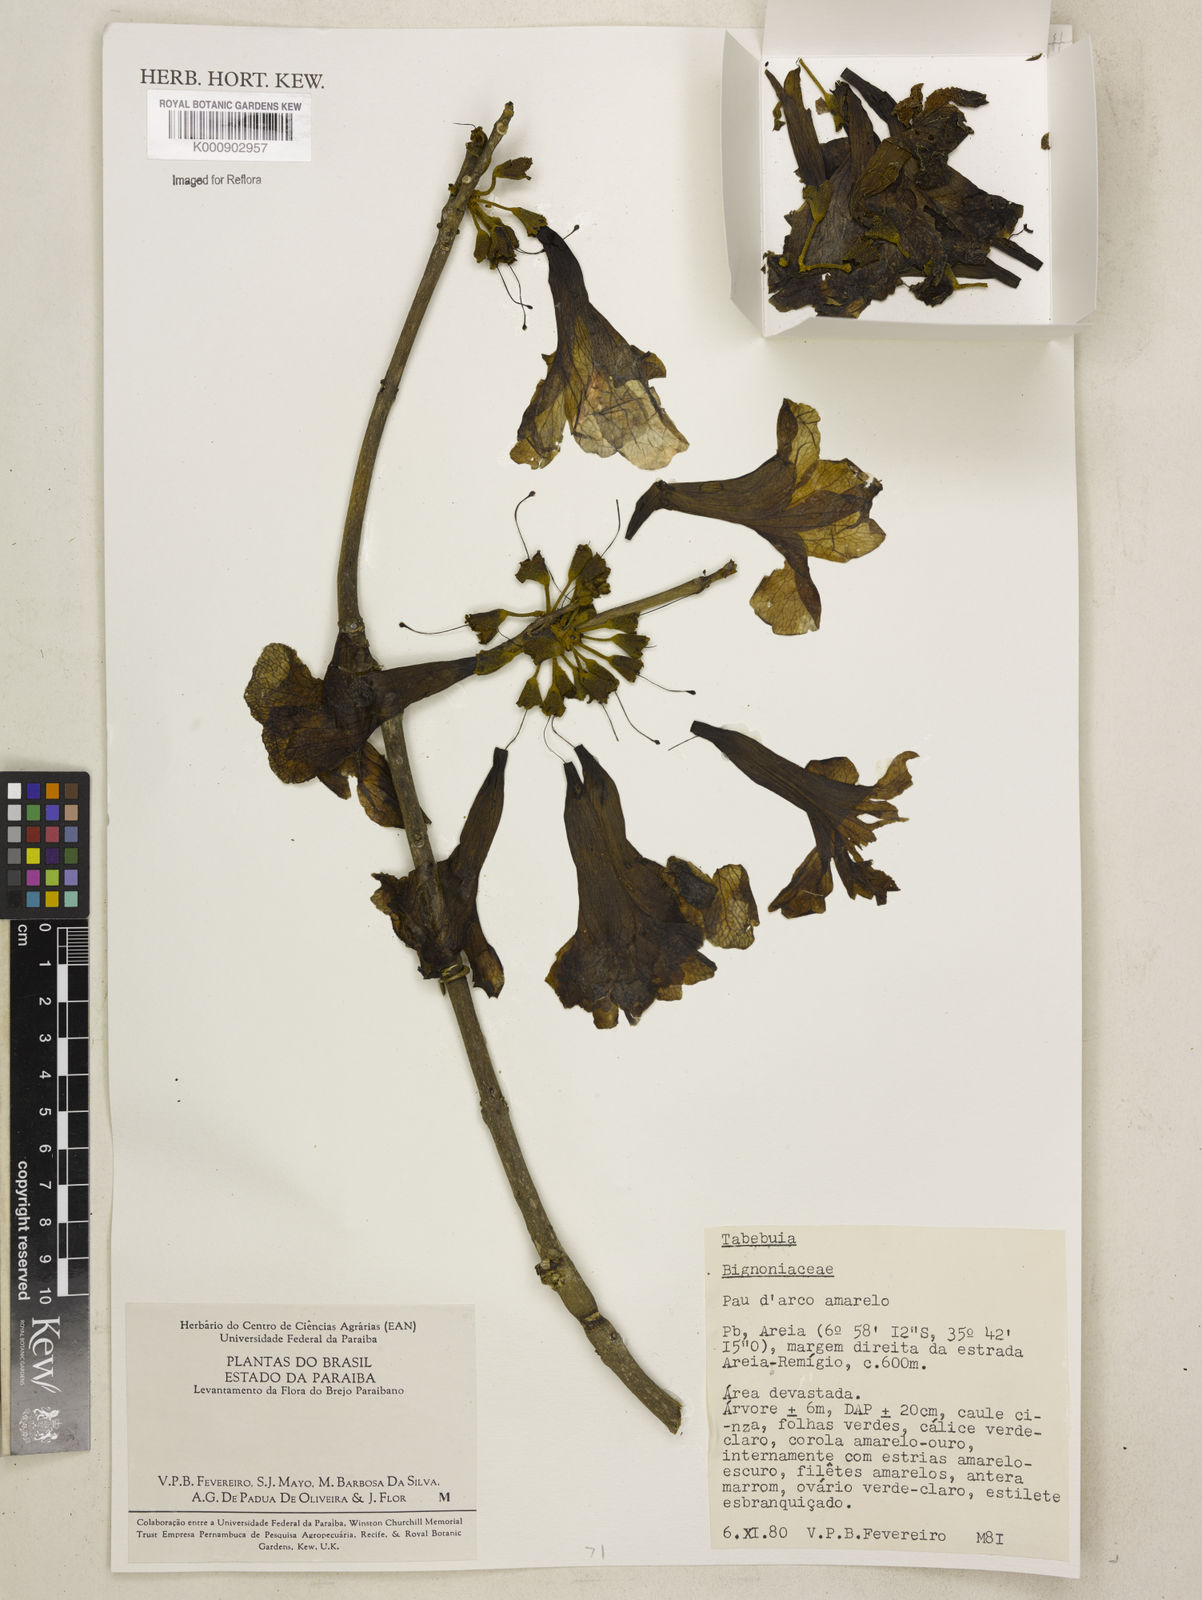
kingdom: Plantae
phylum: Tracheophyta
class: Magnoliopsida
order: Lamiales
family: Bignoniaceae
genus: Tabebuia
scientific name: Tabebuia
